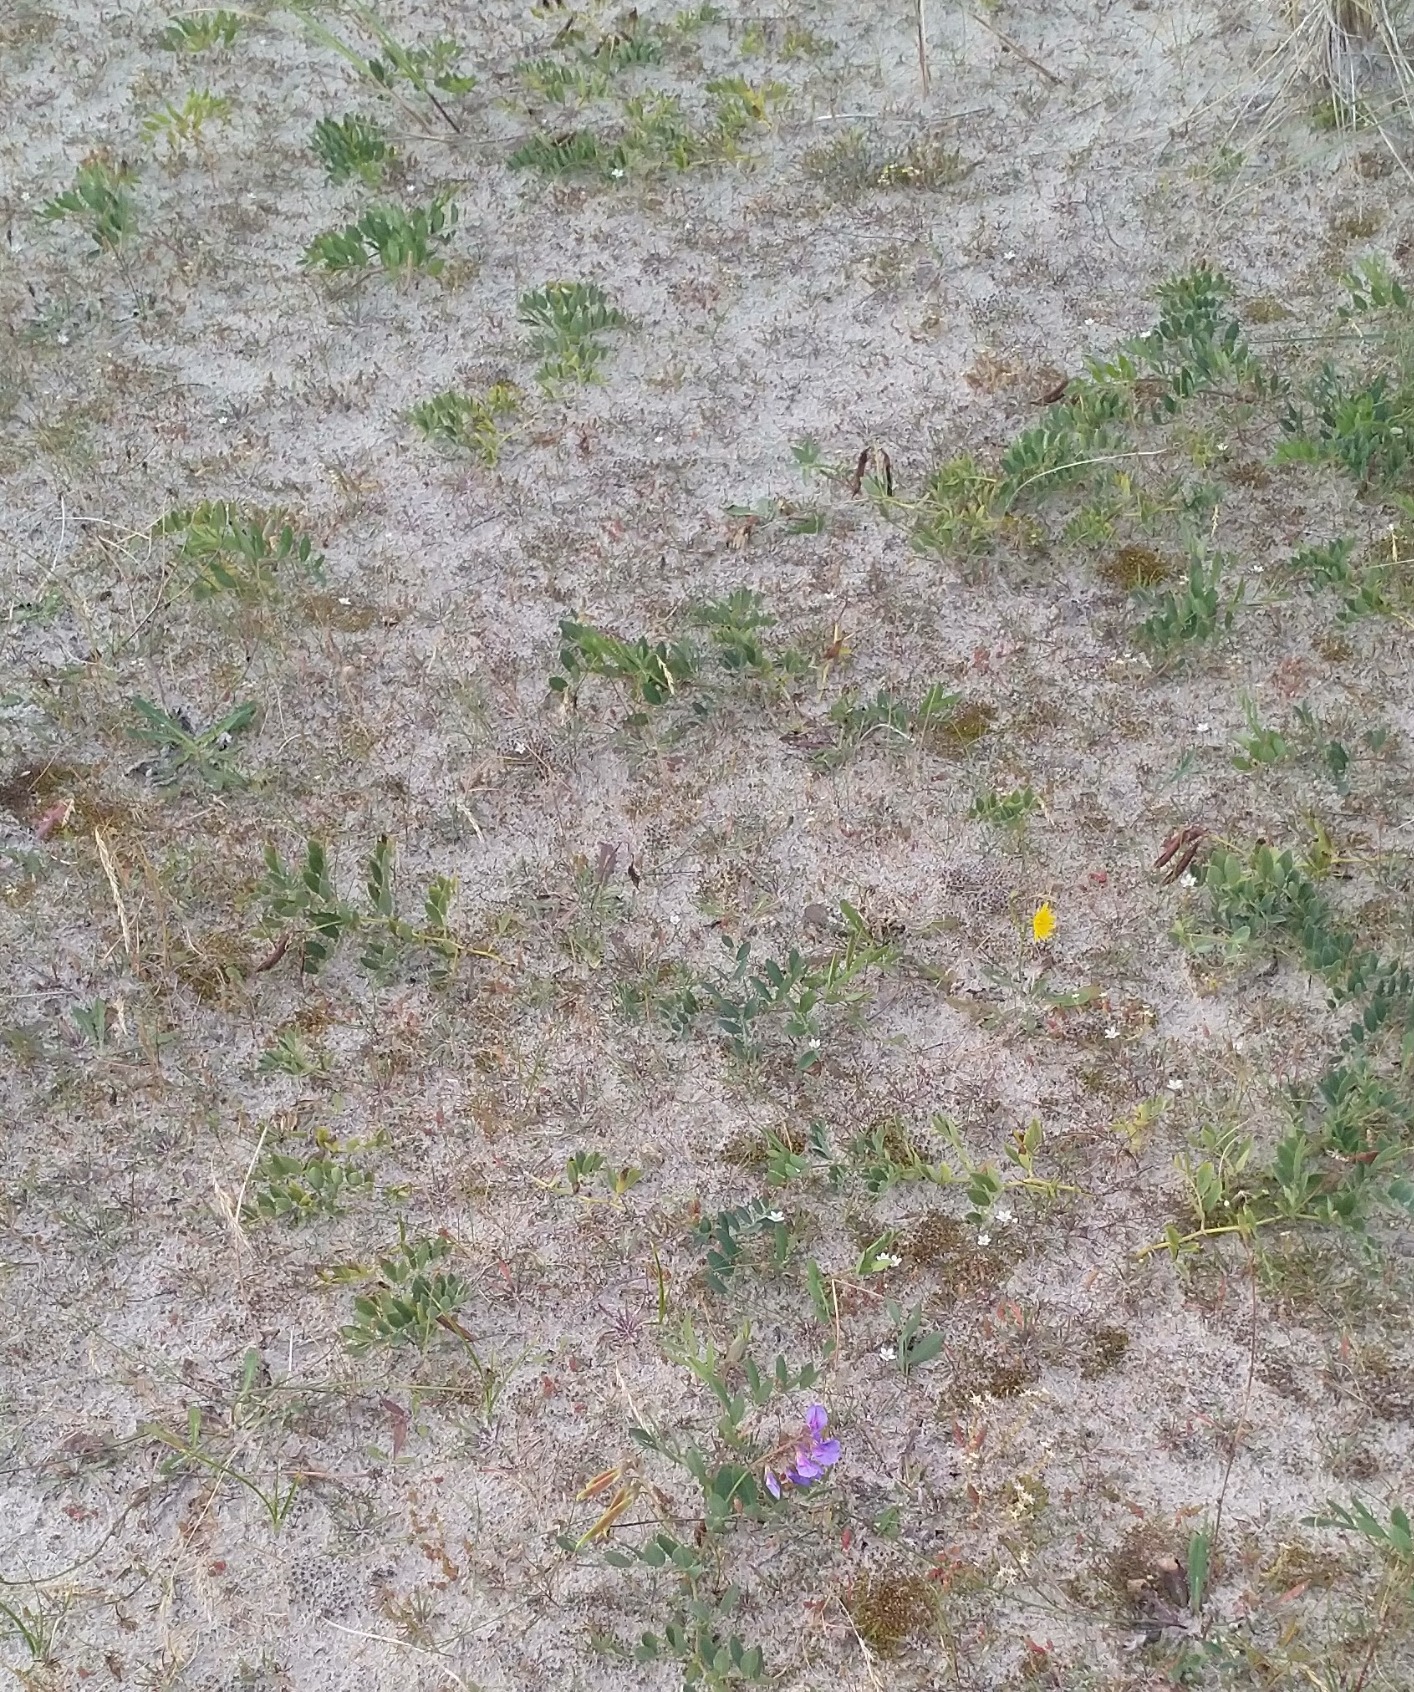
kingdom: Plantae
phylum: Tracheophyta
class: Magnoliopsida
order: Fabales
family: Fabaceae
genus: Lathyrus
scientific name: Lathyrus japonicus
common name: Strand-fladbælg
